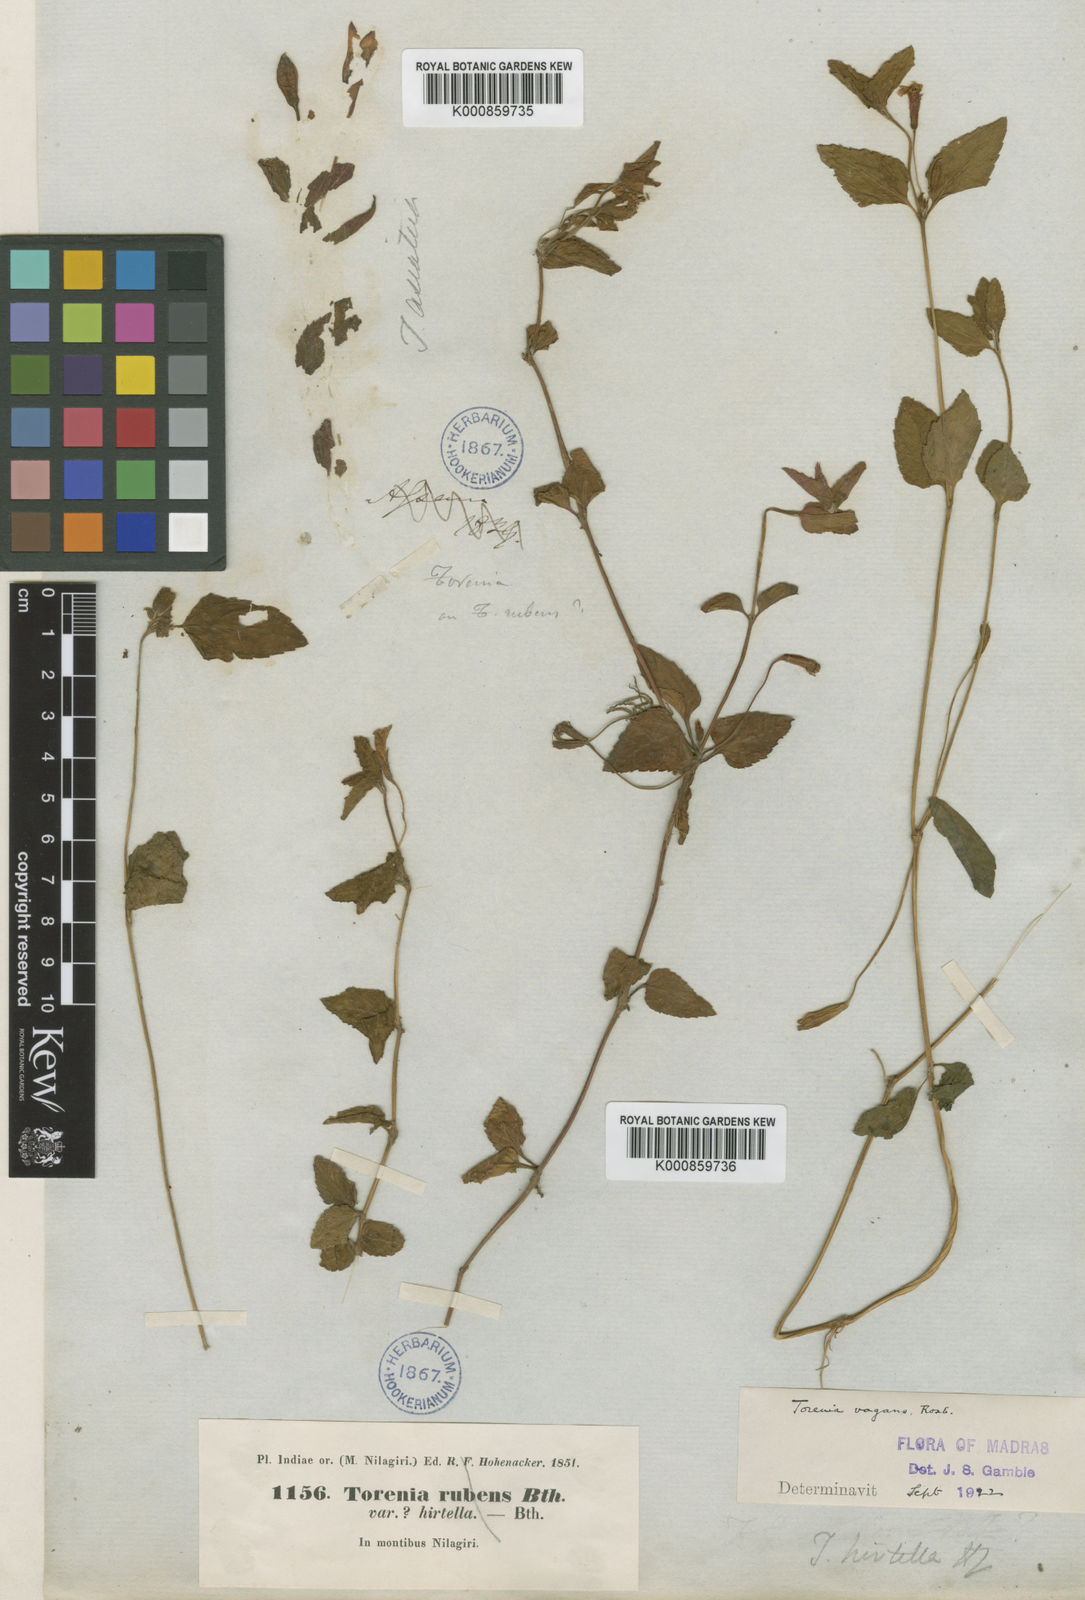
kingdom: Plantae
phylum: Tracheophyta
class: Magnoliopsida
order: Lamiales
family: Linderniaceae
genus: Torenia
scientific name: Torenia diffusa
